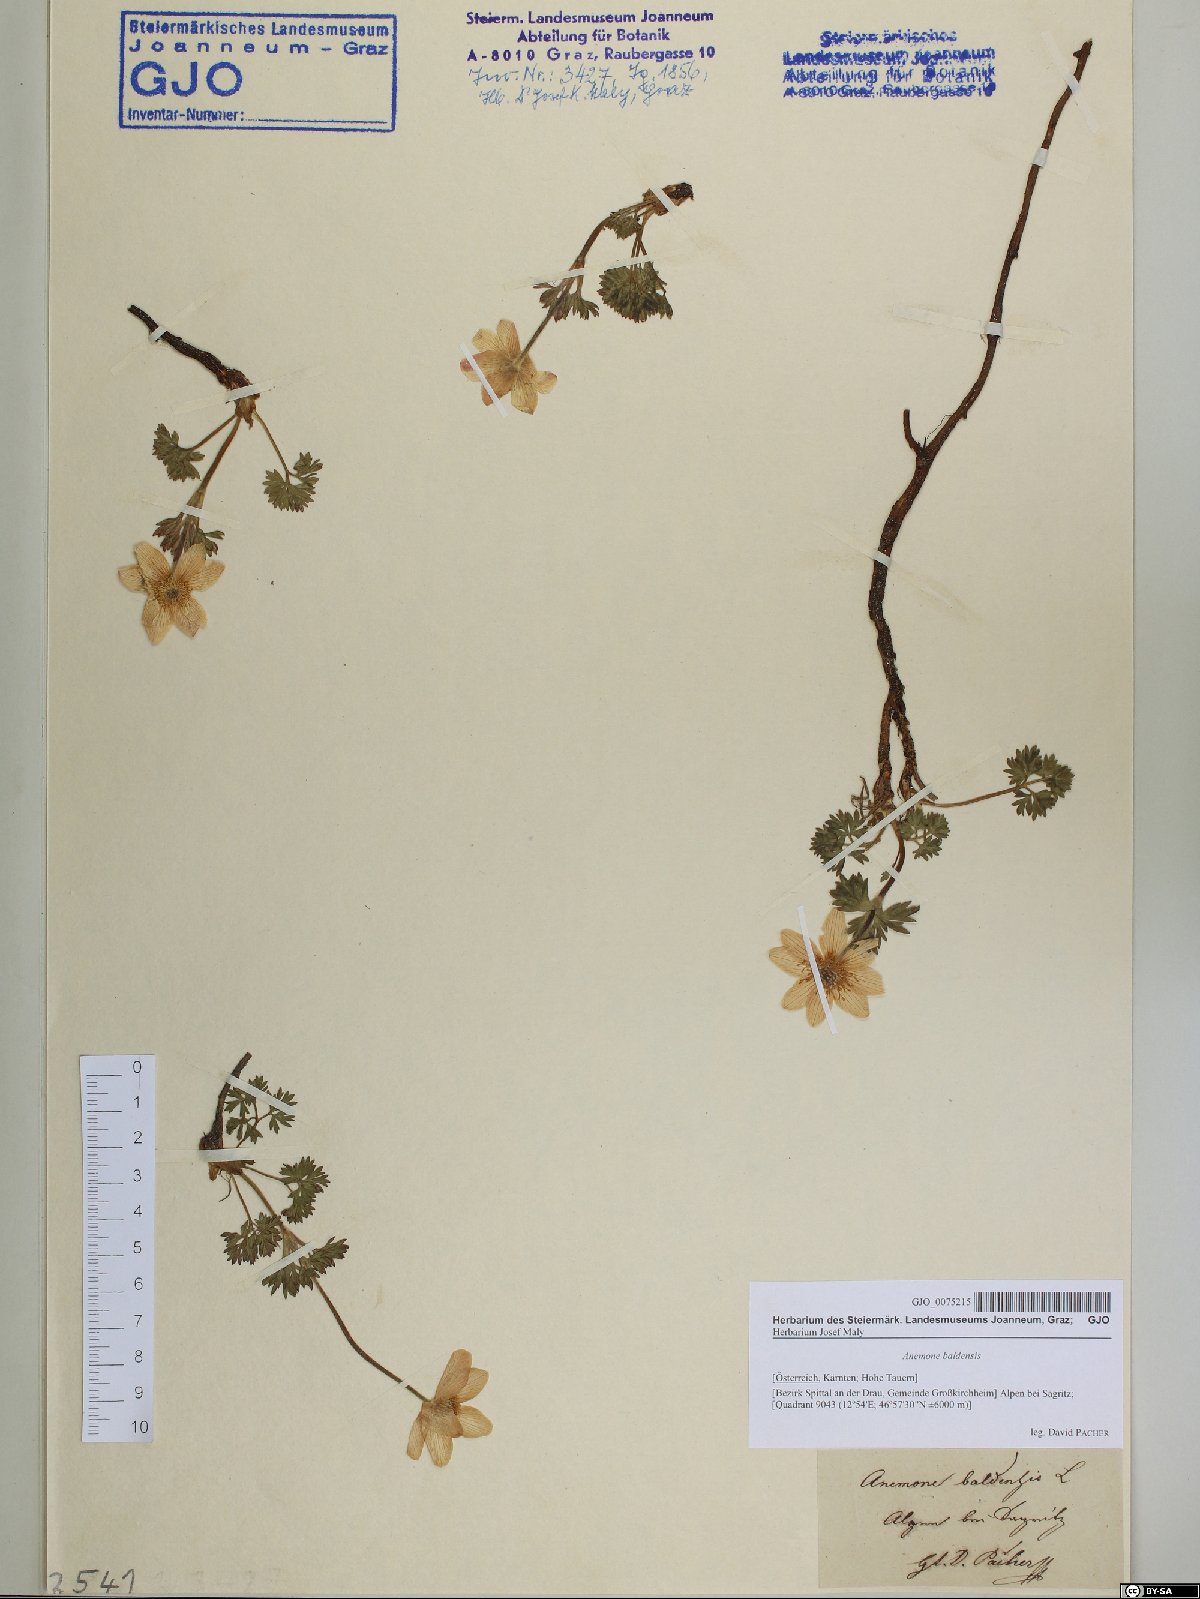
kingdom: Plantae
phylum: Tracheophyta
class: Magnoliopsida
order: Ranunculales
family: Ranunculaceae
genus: Anemone
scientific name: Anemone baldensis
